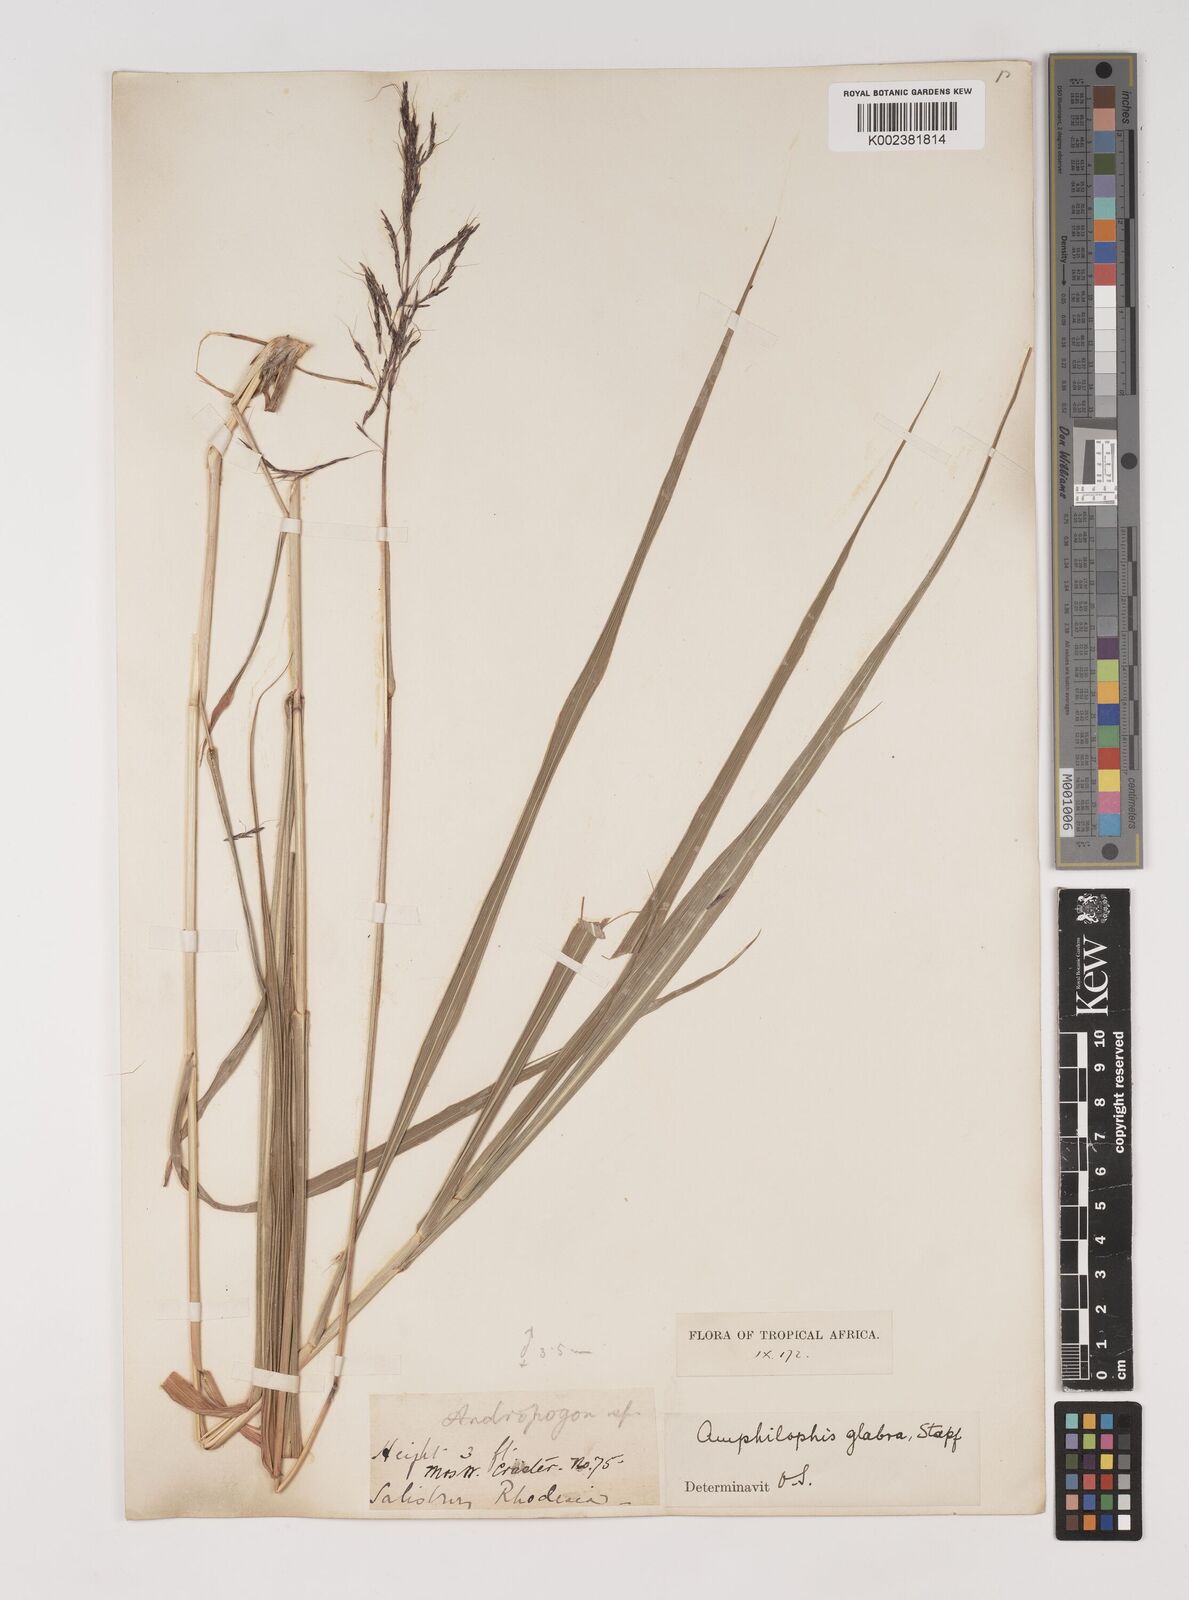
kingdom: Plantae
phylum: Tracheophyta
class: Liliopsida
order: Poales
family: Poaceae
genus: Bothriochloa
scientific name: Bothriochloa bladhii
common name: Caucasian bluestem
